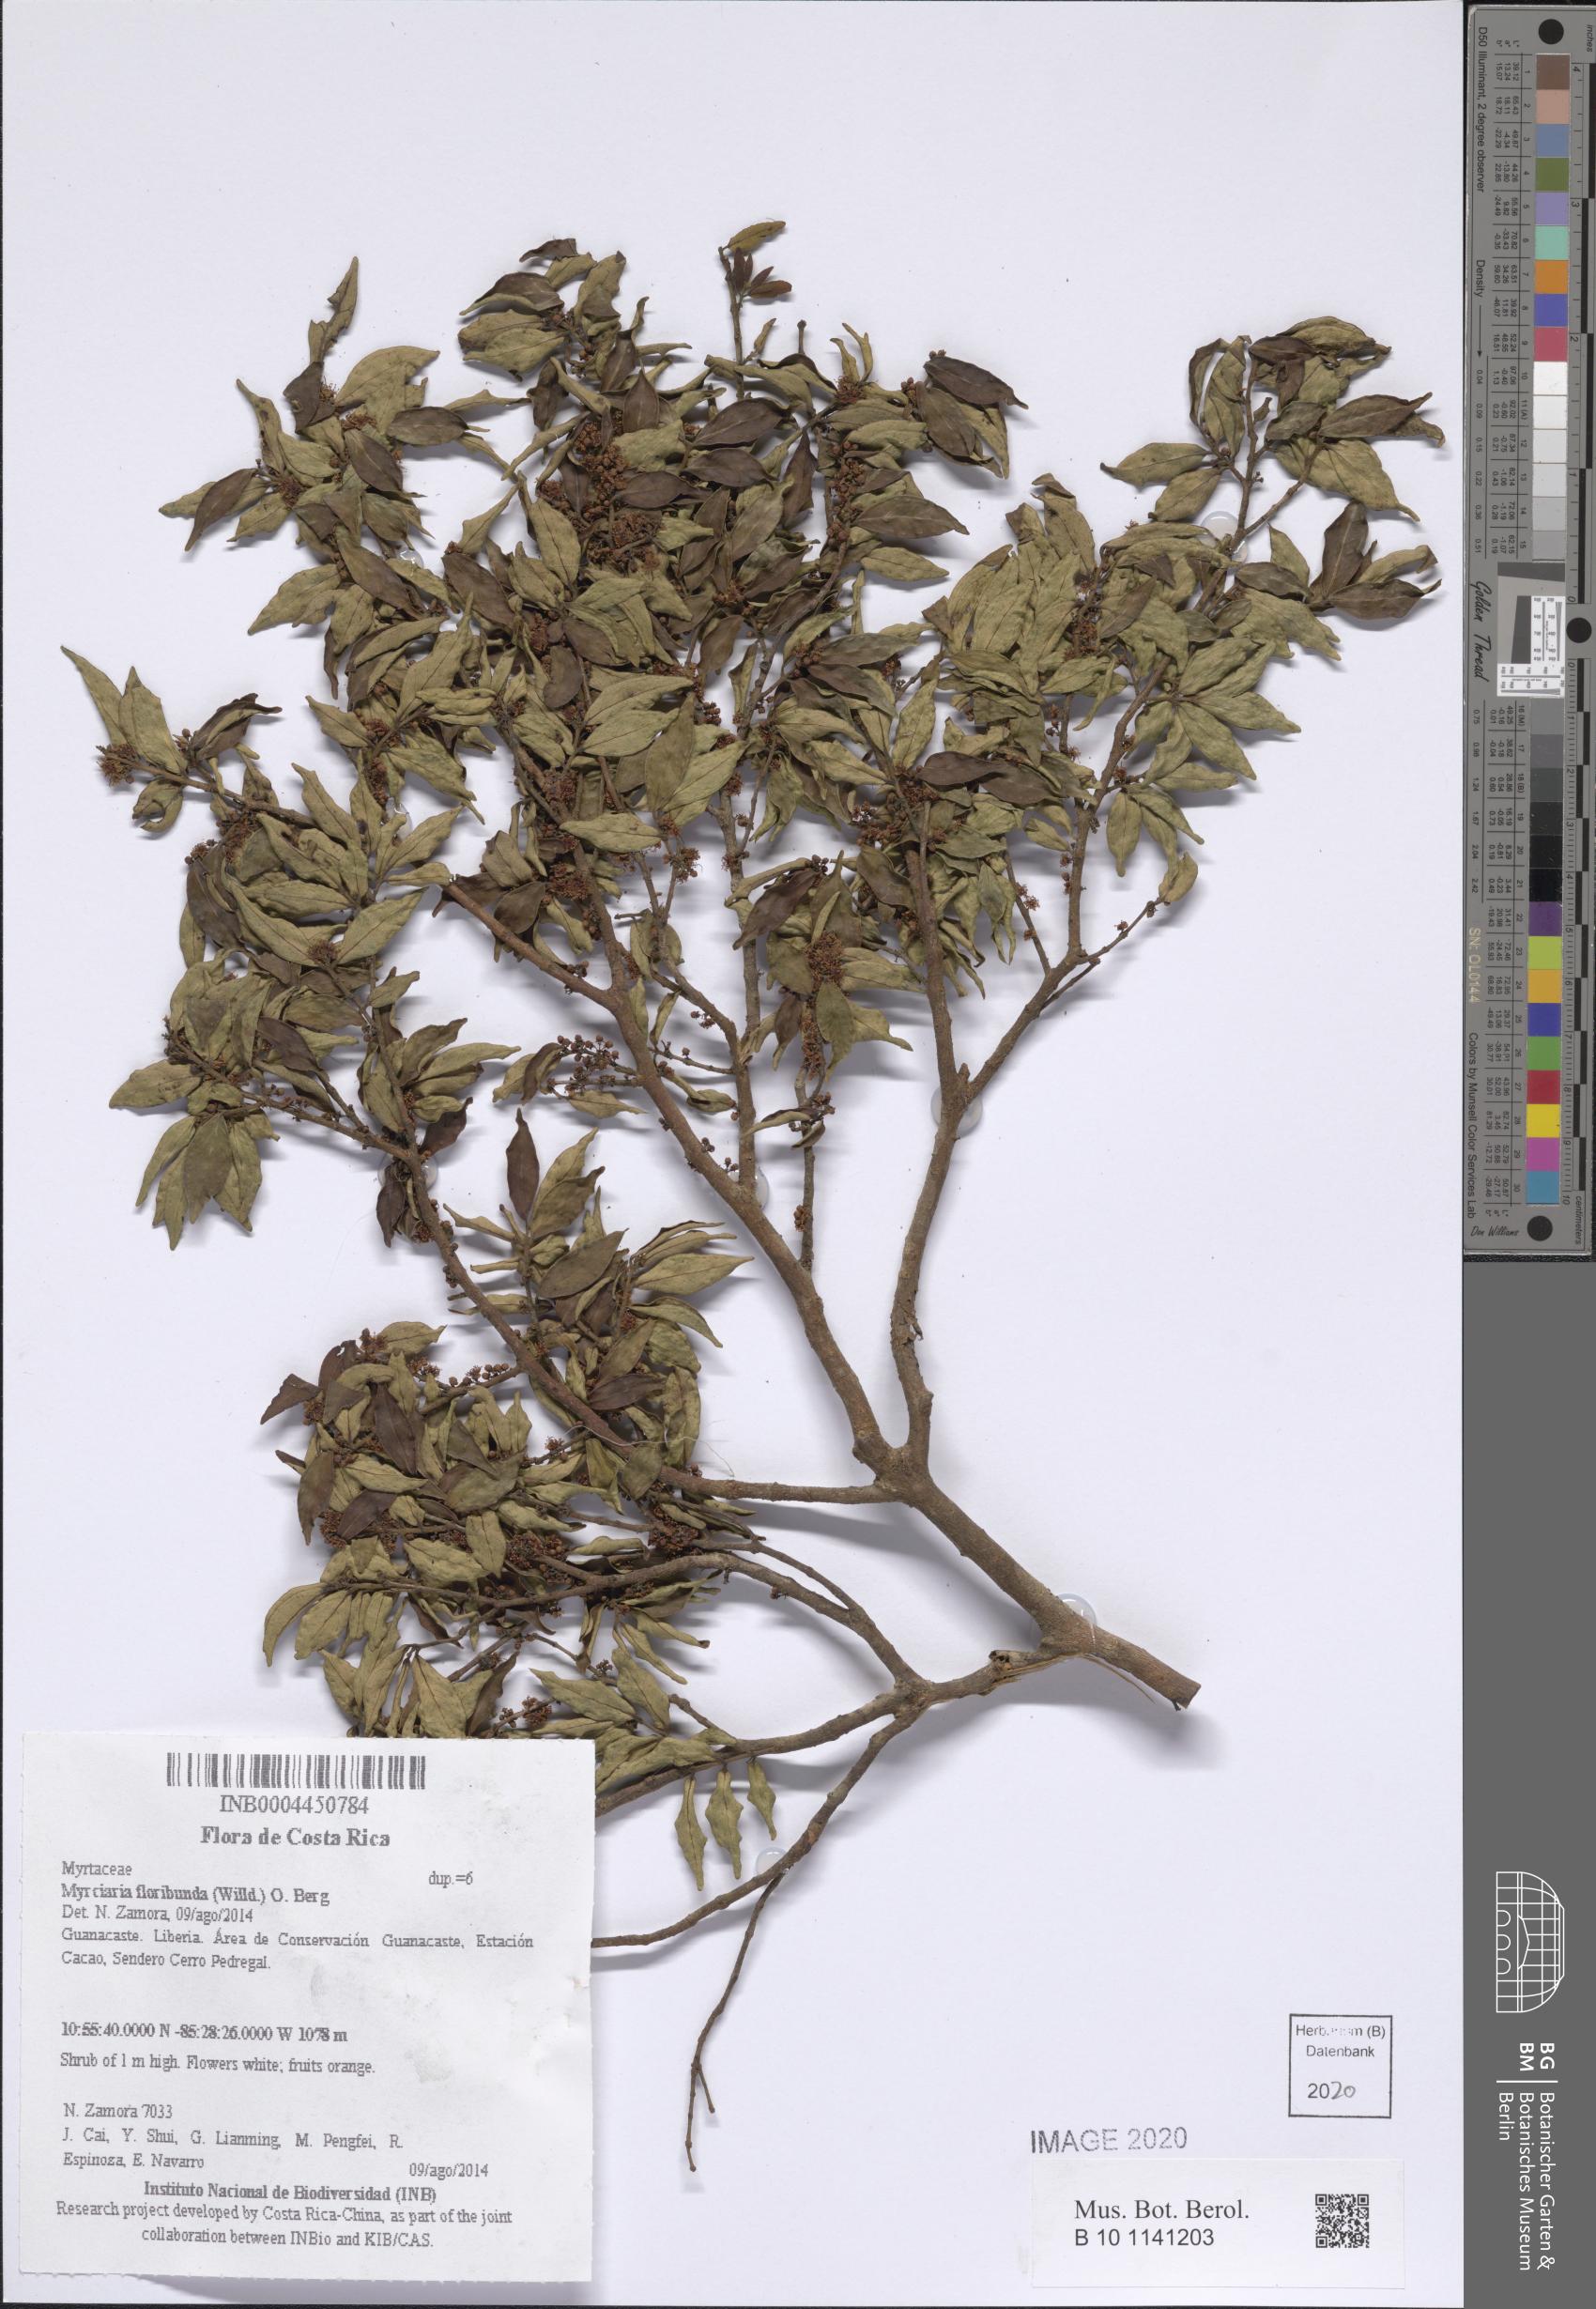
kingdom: Plantae
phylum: Tracheophyta
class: Magnoliopsida
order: Myrtales
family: Myrtaceae
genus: Myrciaria
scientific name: Myrciaria floribunda
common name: Guavaberry
